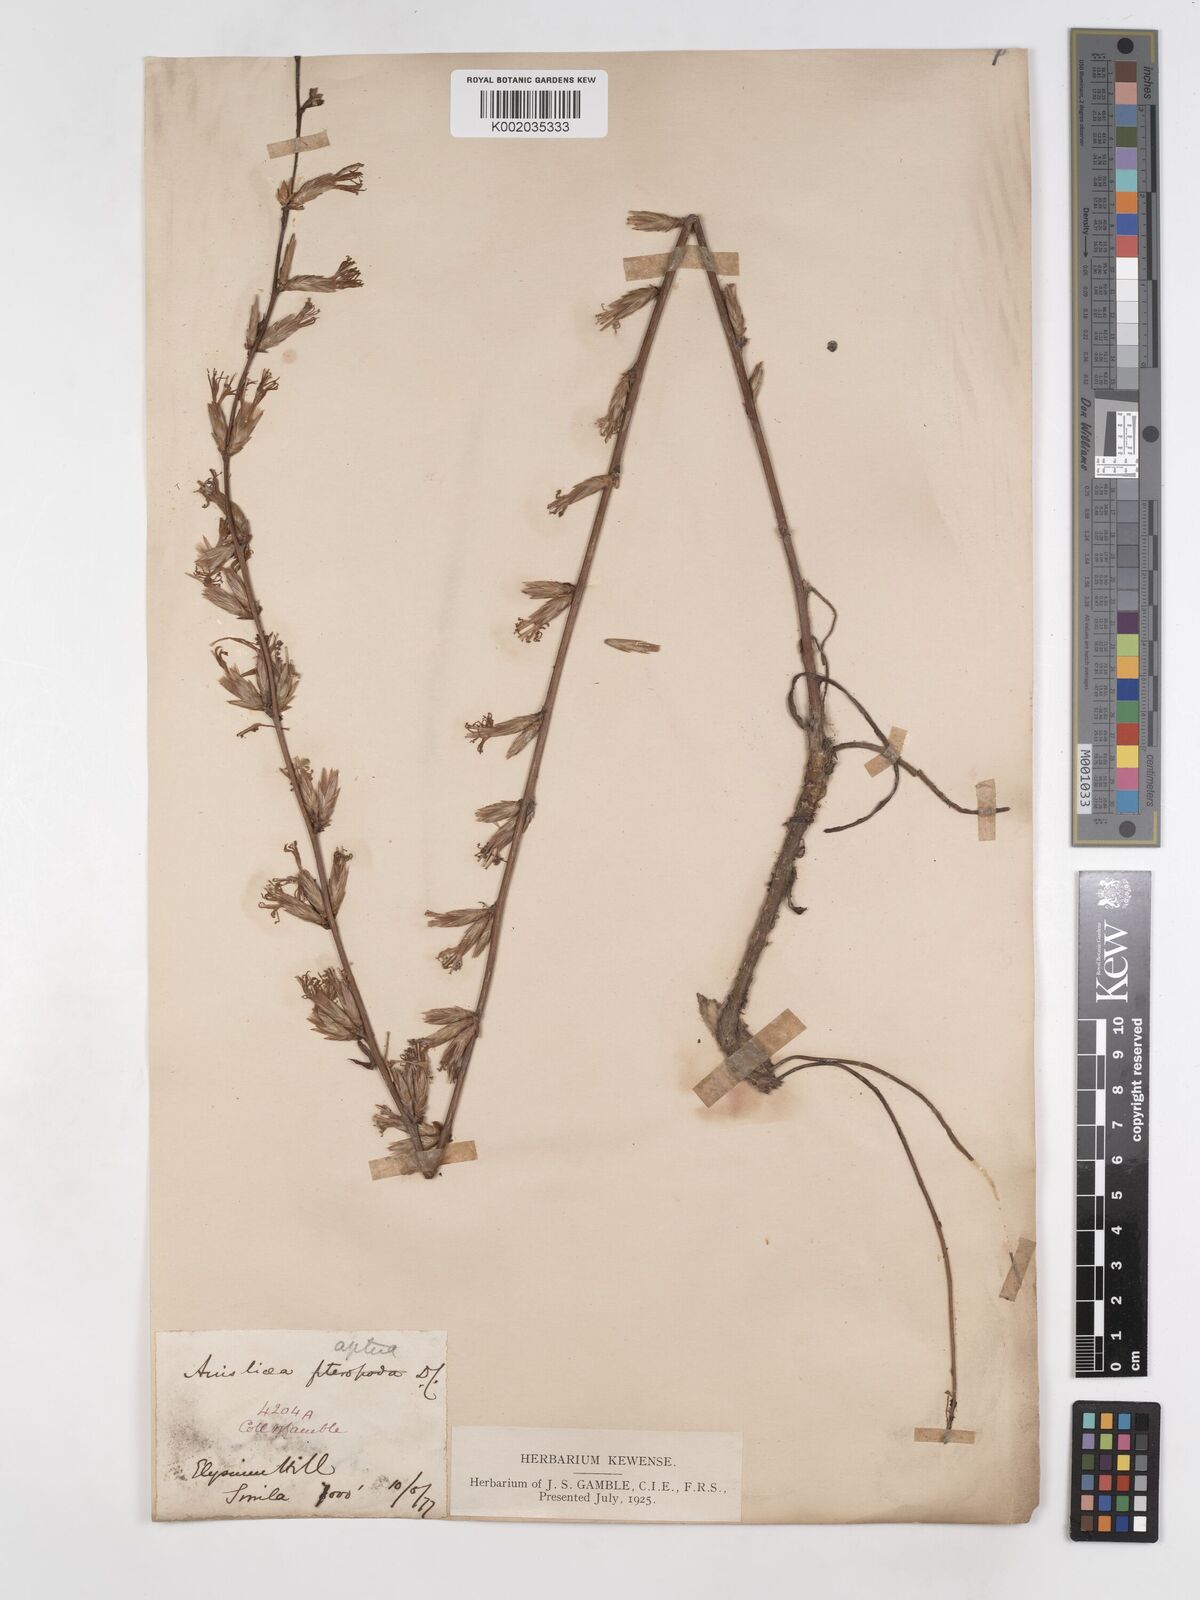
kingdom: Plantae
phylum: Tracheophyta
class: Magnoliopsida
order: Asterales
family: Asteraceae
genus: Ainsliaea
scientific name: Ainsliaea aptera
